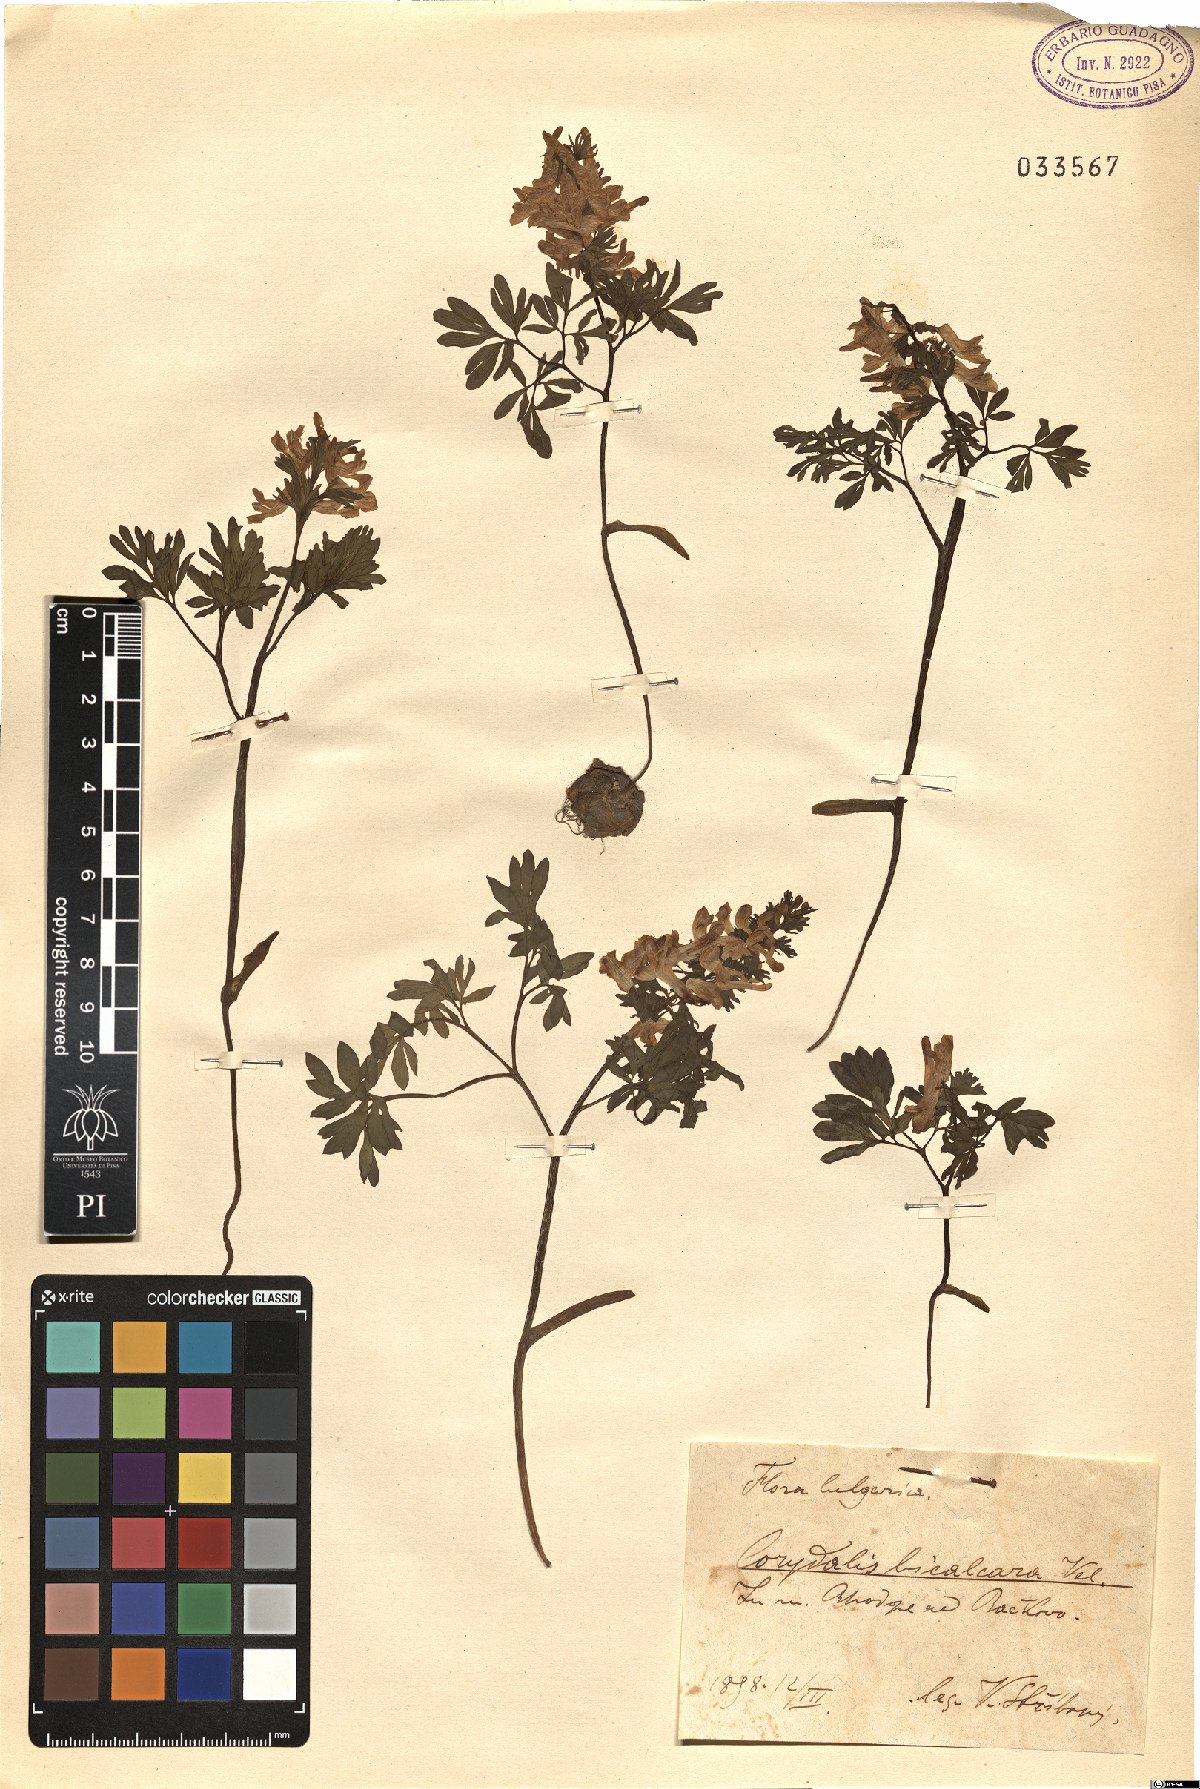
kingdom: Plantae
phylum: Tracheophyta
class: Magnoliopsida
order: Ranunculales
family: Papaveraceae
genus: Corydalis
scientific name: Corydalis bicalcarata
